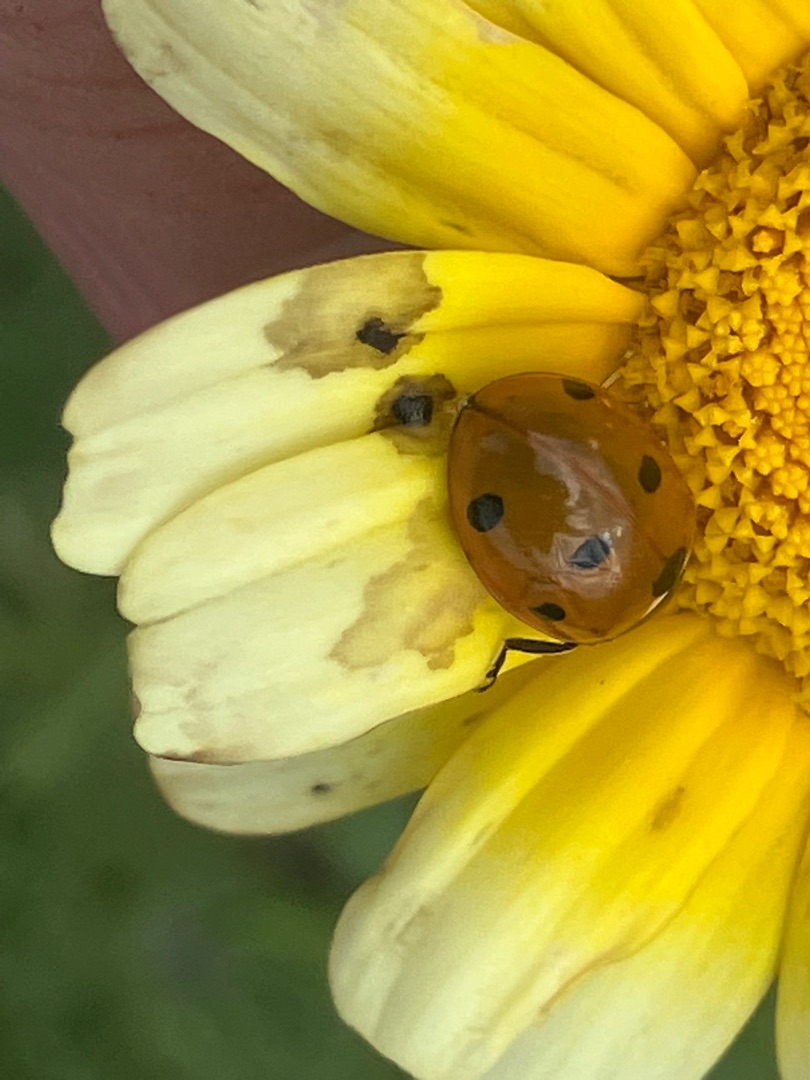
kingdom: Animalia
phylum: Arthropoda
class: Insecta
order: Coleoptera
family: Coccinellidae
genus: Coccinella
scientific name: Coccinella septempunctata
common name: Syvplettet mariehøne
